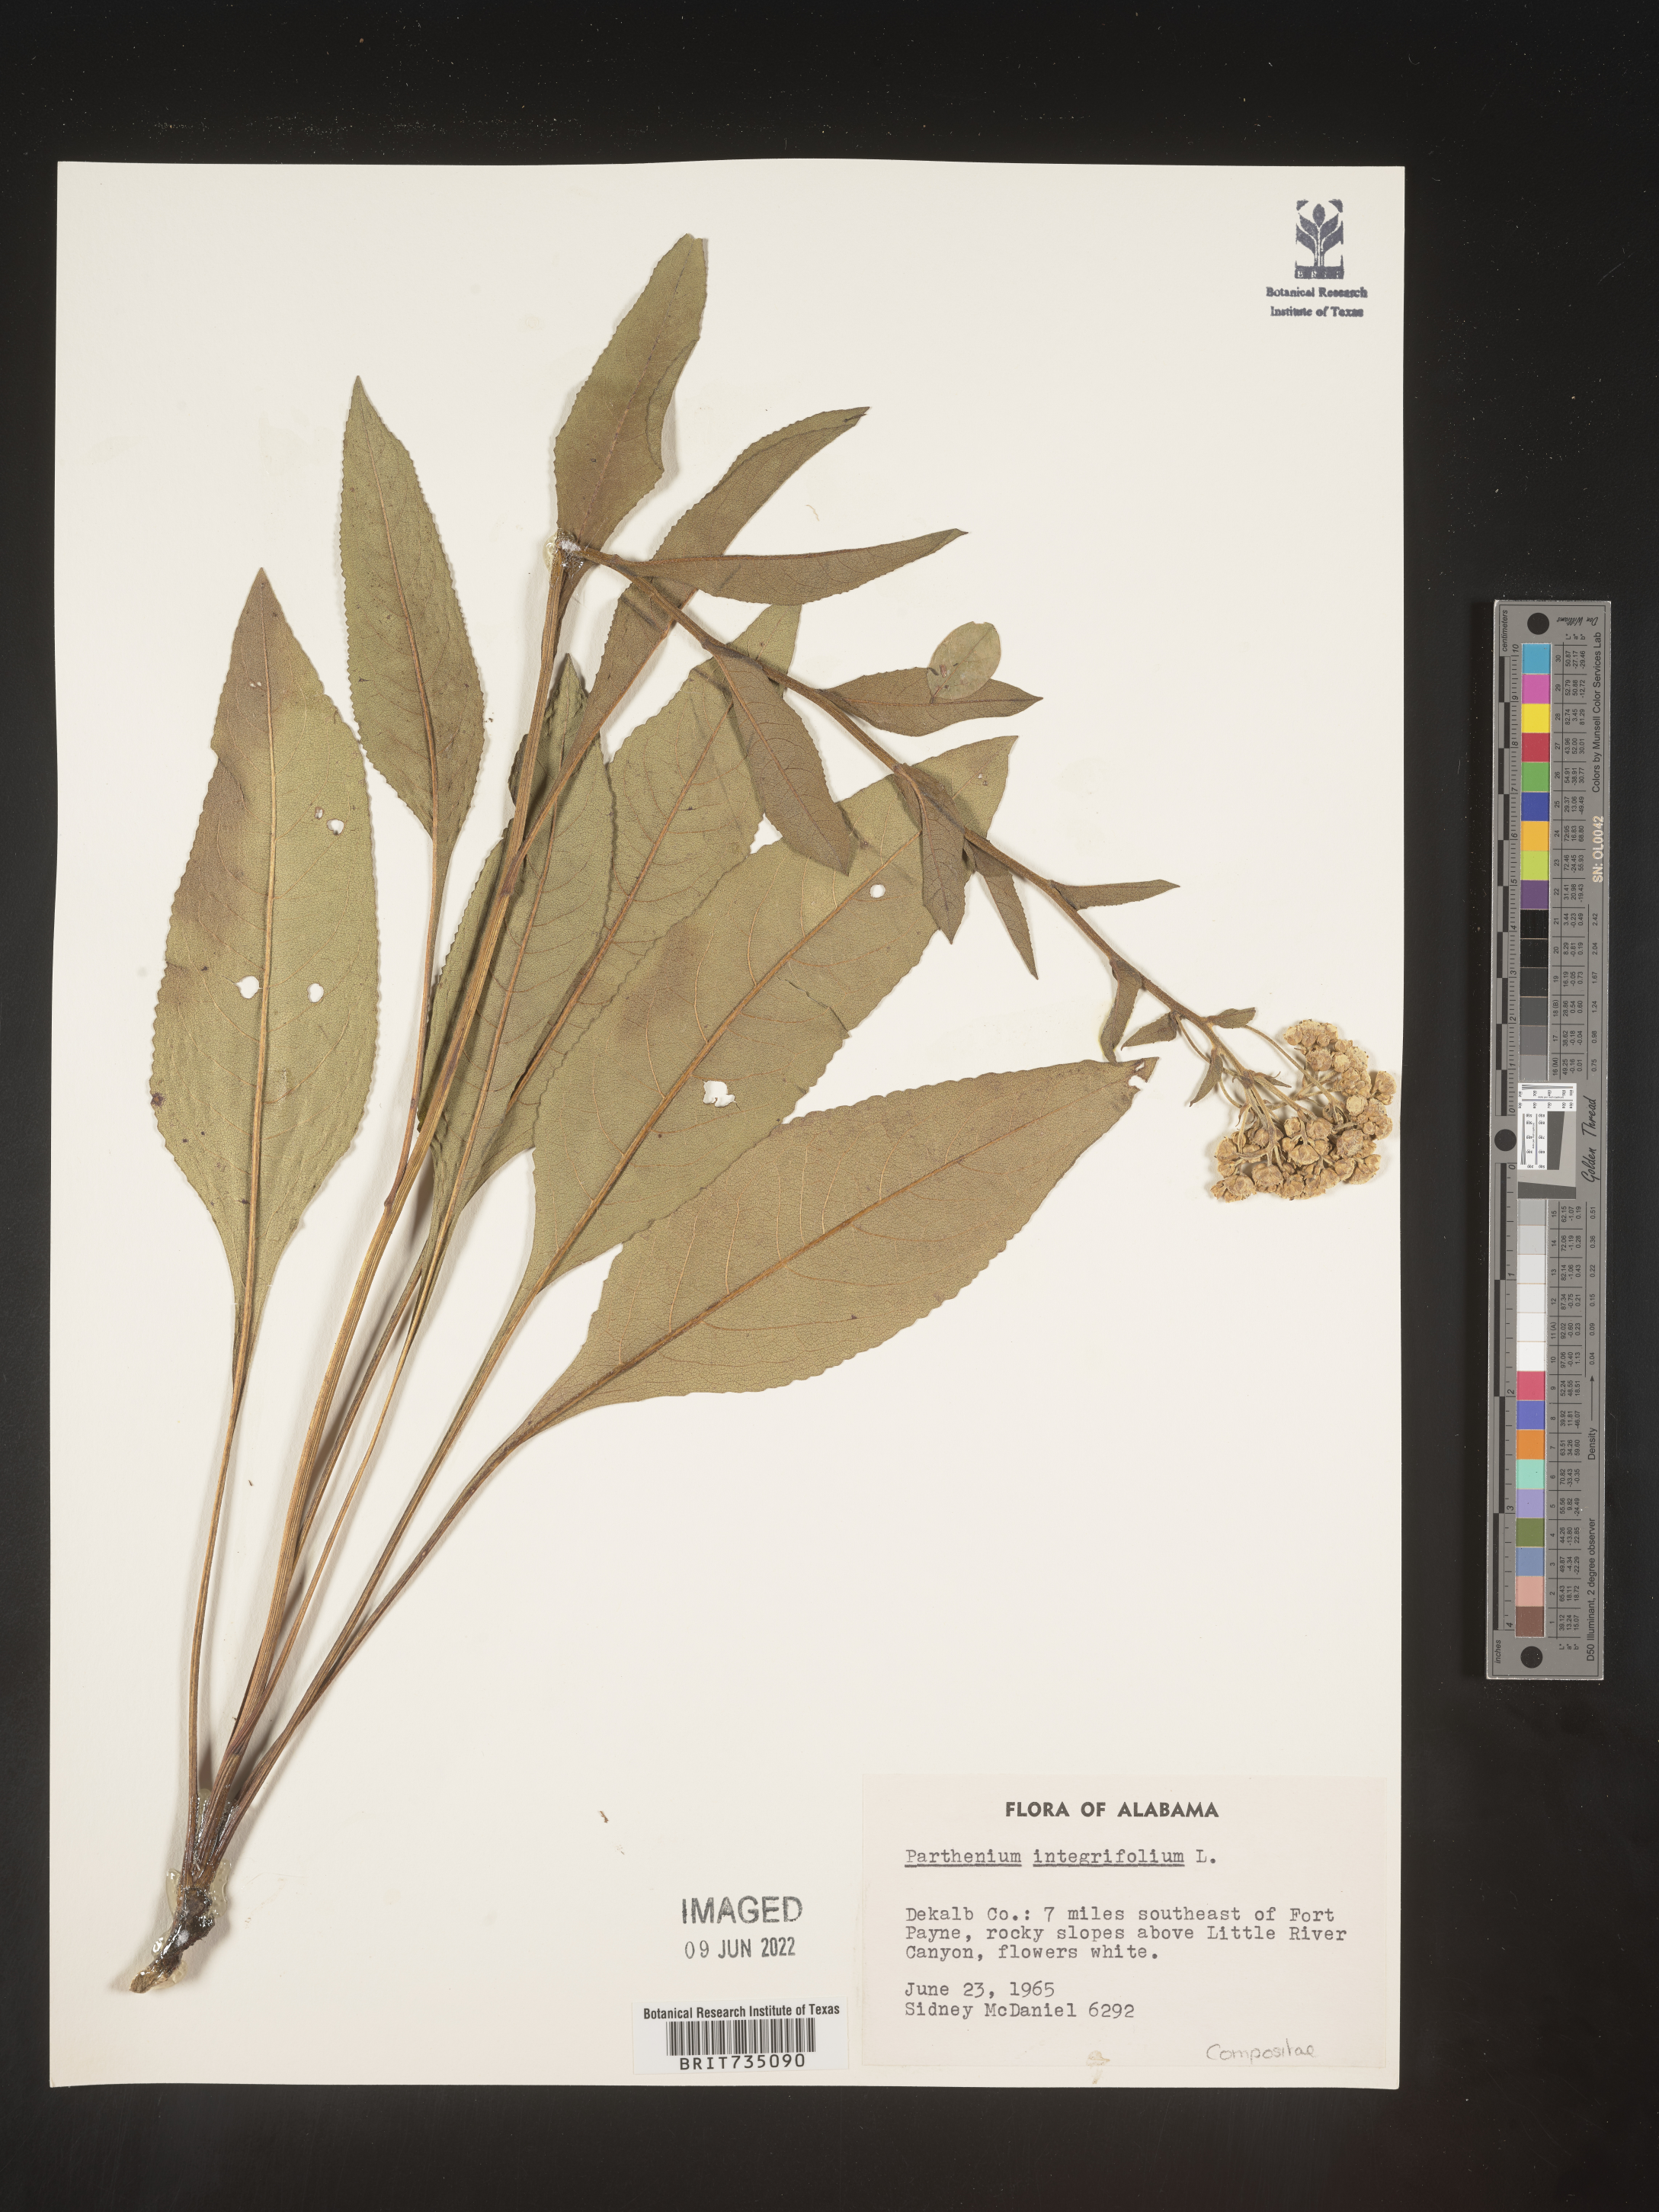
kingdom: Plantae
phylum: Tracheophyta
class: Magnoliopsida
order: Asterales
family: Asteraceae
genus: Parthenium
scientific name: Parthenium integrifolium
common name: American feverfew
